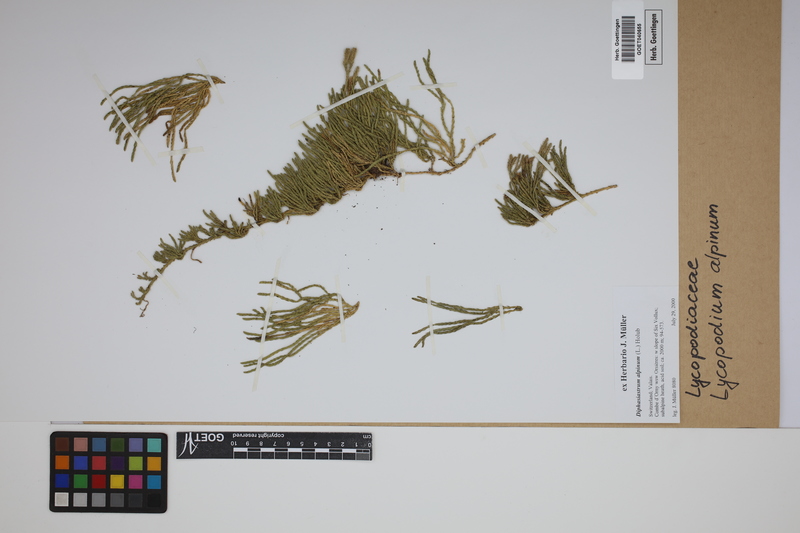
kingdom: Plantae
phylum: Tracheophyta
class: Lycopodiopsida
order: Lycopodiales
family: Lycopodiaceae
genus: Diphasiastrum
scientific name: Diphasiastrum alpinum
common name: Alpine clubmoss
